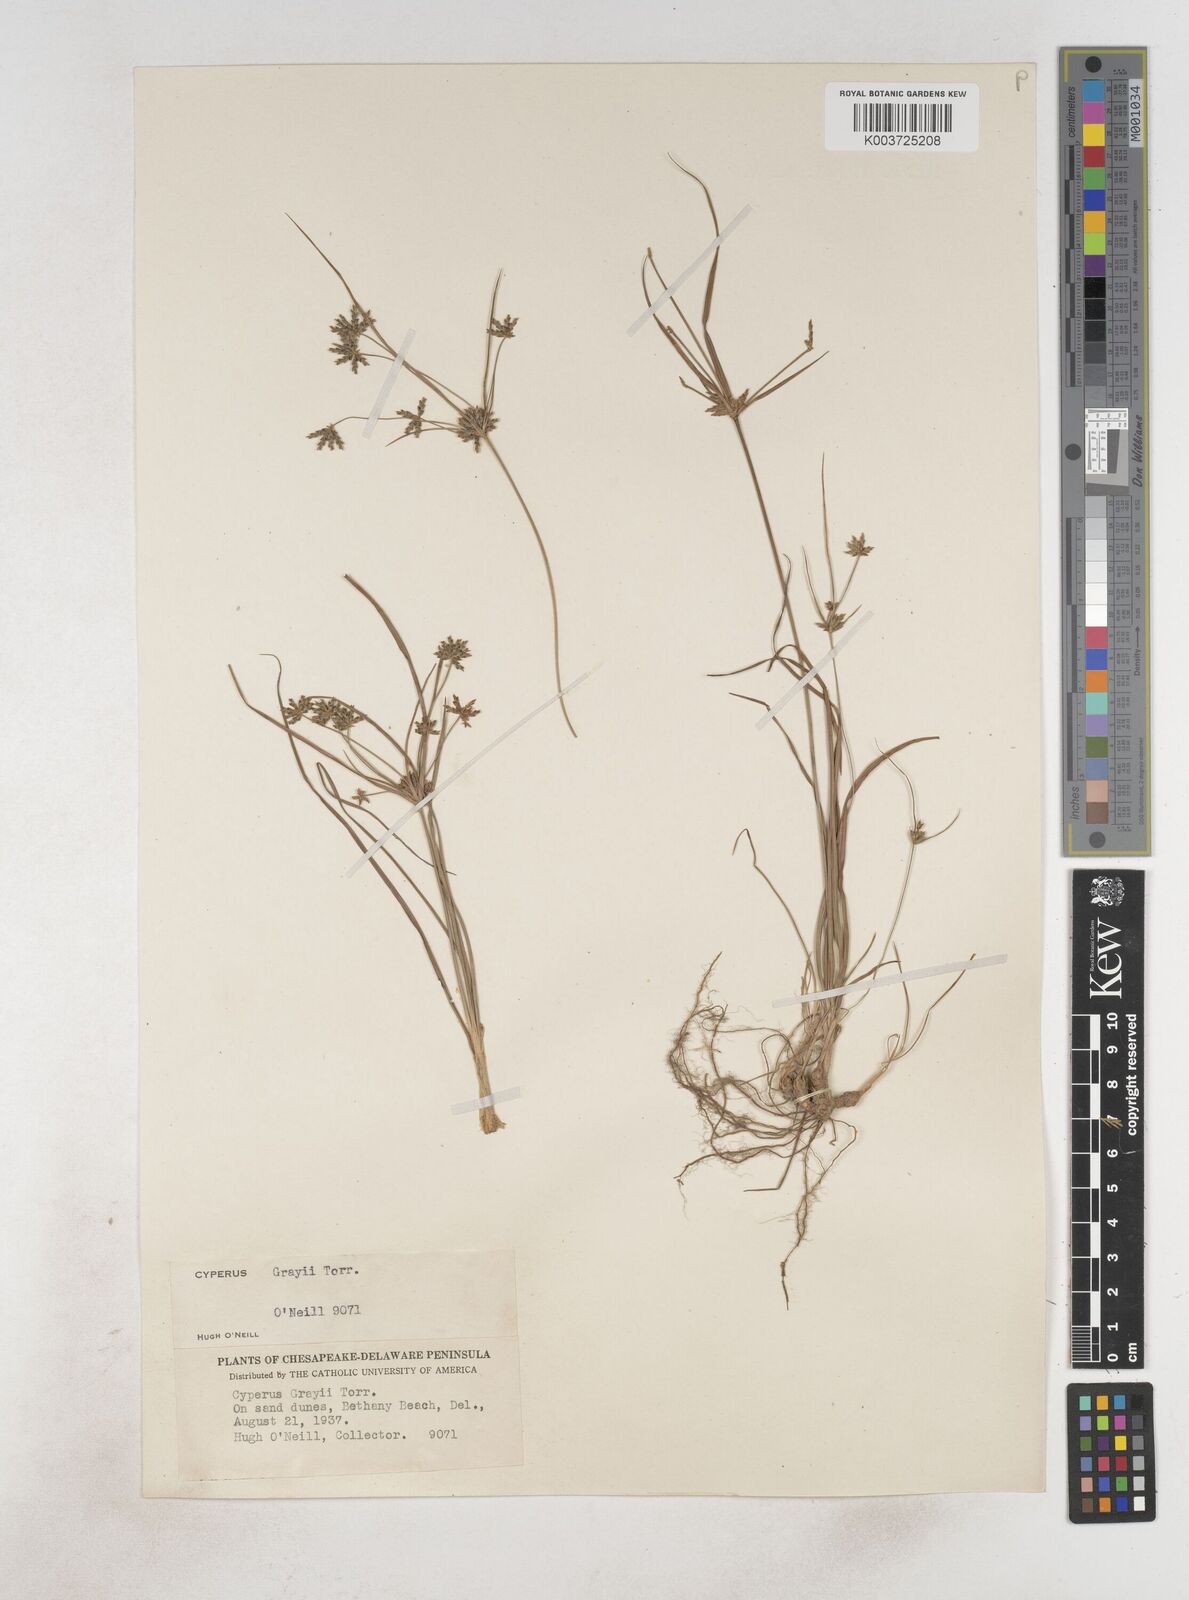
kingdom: Plantae
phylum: Tracheophyta
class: Liliopsida
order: Poales
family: Cyperaceae
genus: Cyperus
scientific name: Cyperus grayi
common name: Gray's flat sedge
